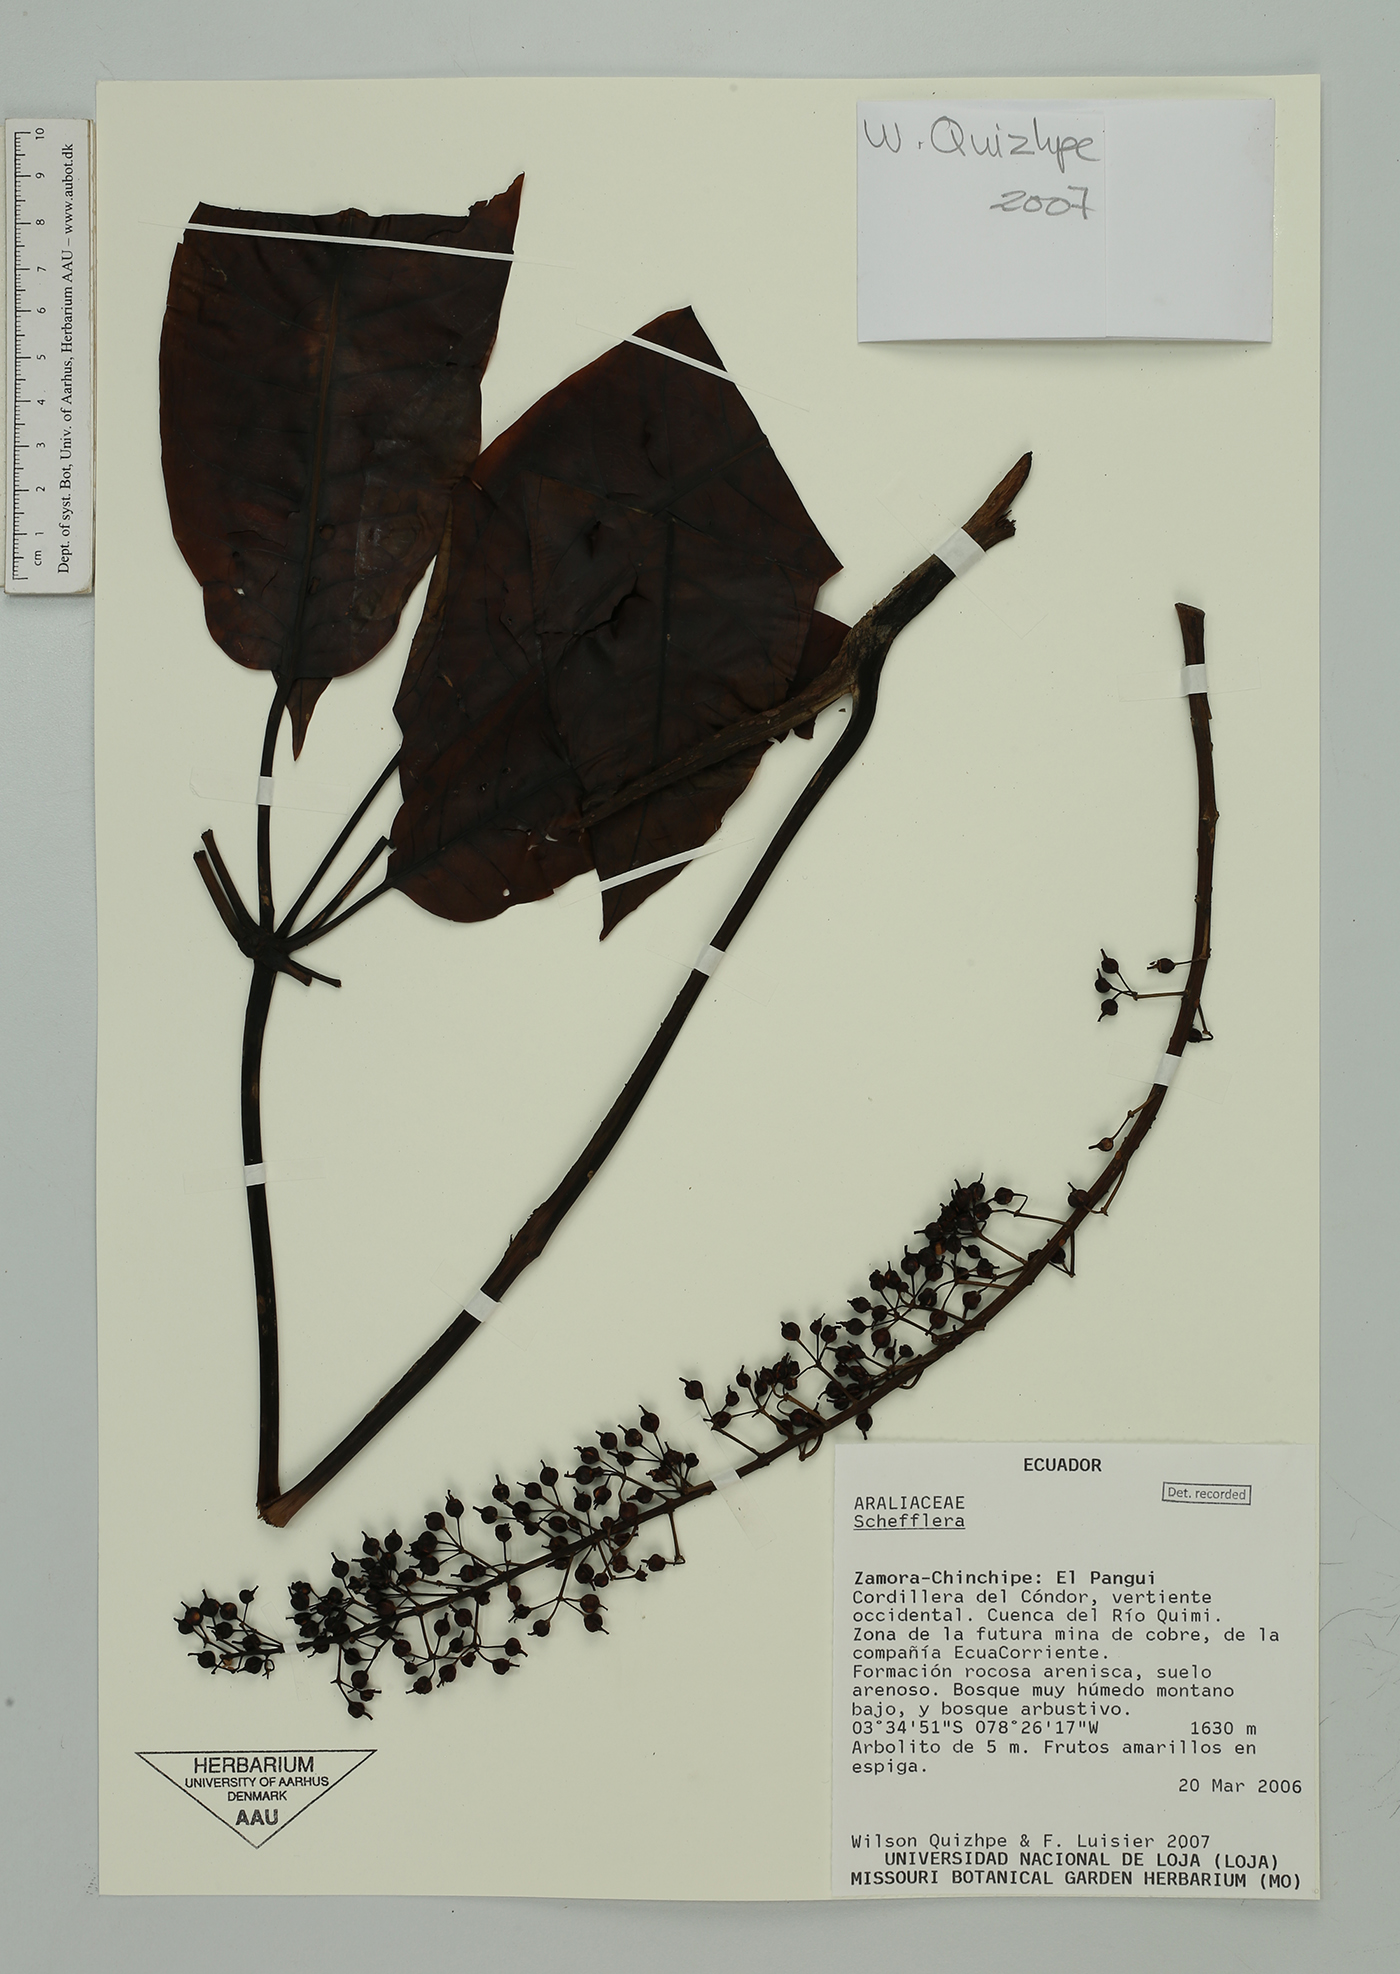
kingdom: Plantae
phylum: Tracheophyta
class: Magnoliopsida
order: Apiales
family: Araliaceae
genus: Sciodaphyllum
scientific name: Sciodaphyllum
